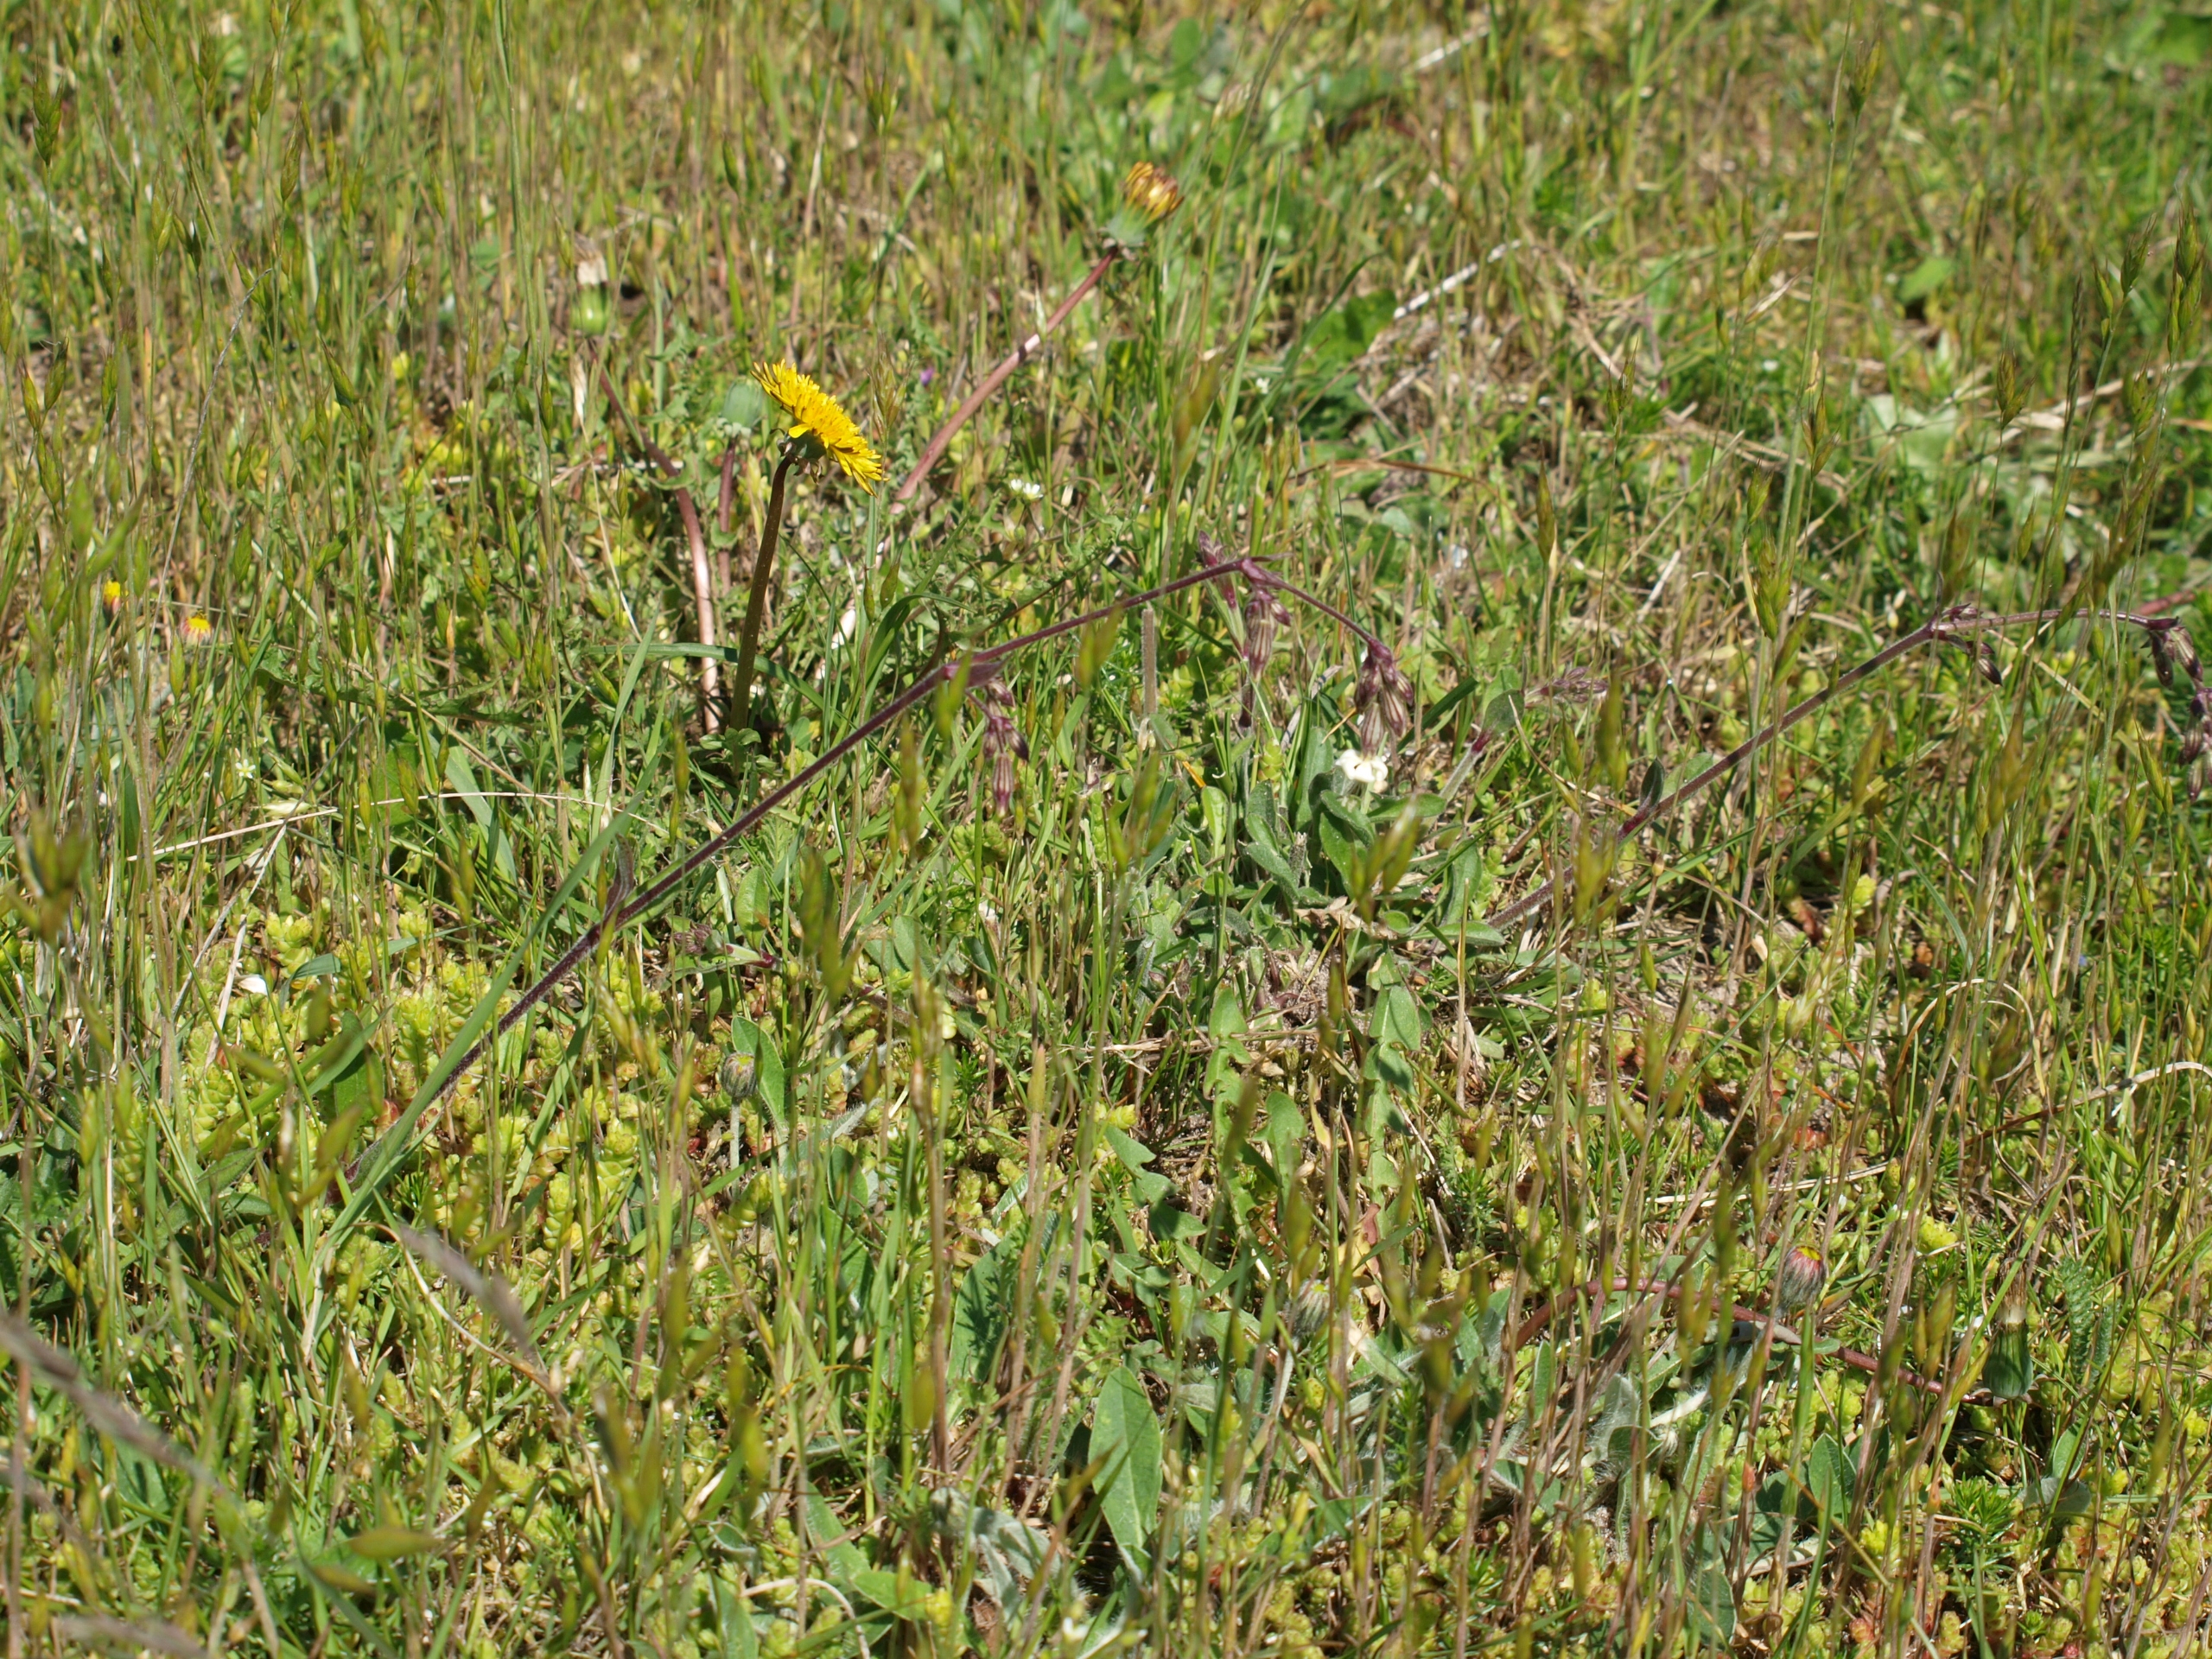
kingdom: Plantae
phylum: Tracheophyta
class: Magnoliopsida
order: Caryophyllales
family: Caryophyllaceae
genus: Silene
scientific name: Silene nutans
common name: Nikkende limurt
